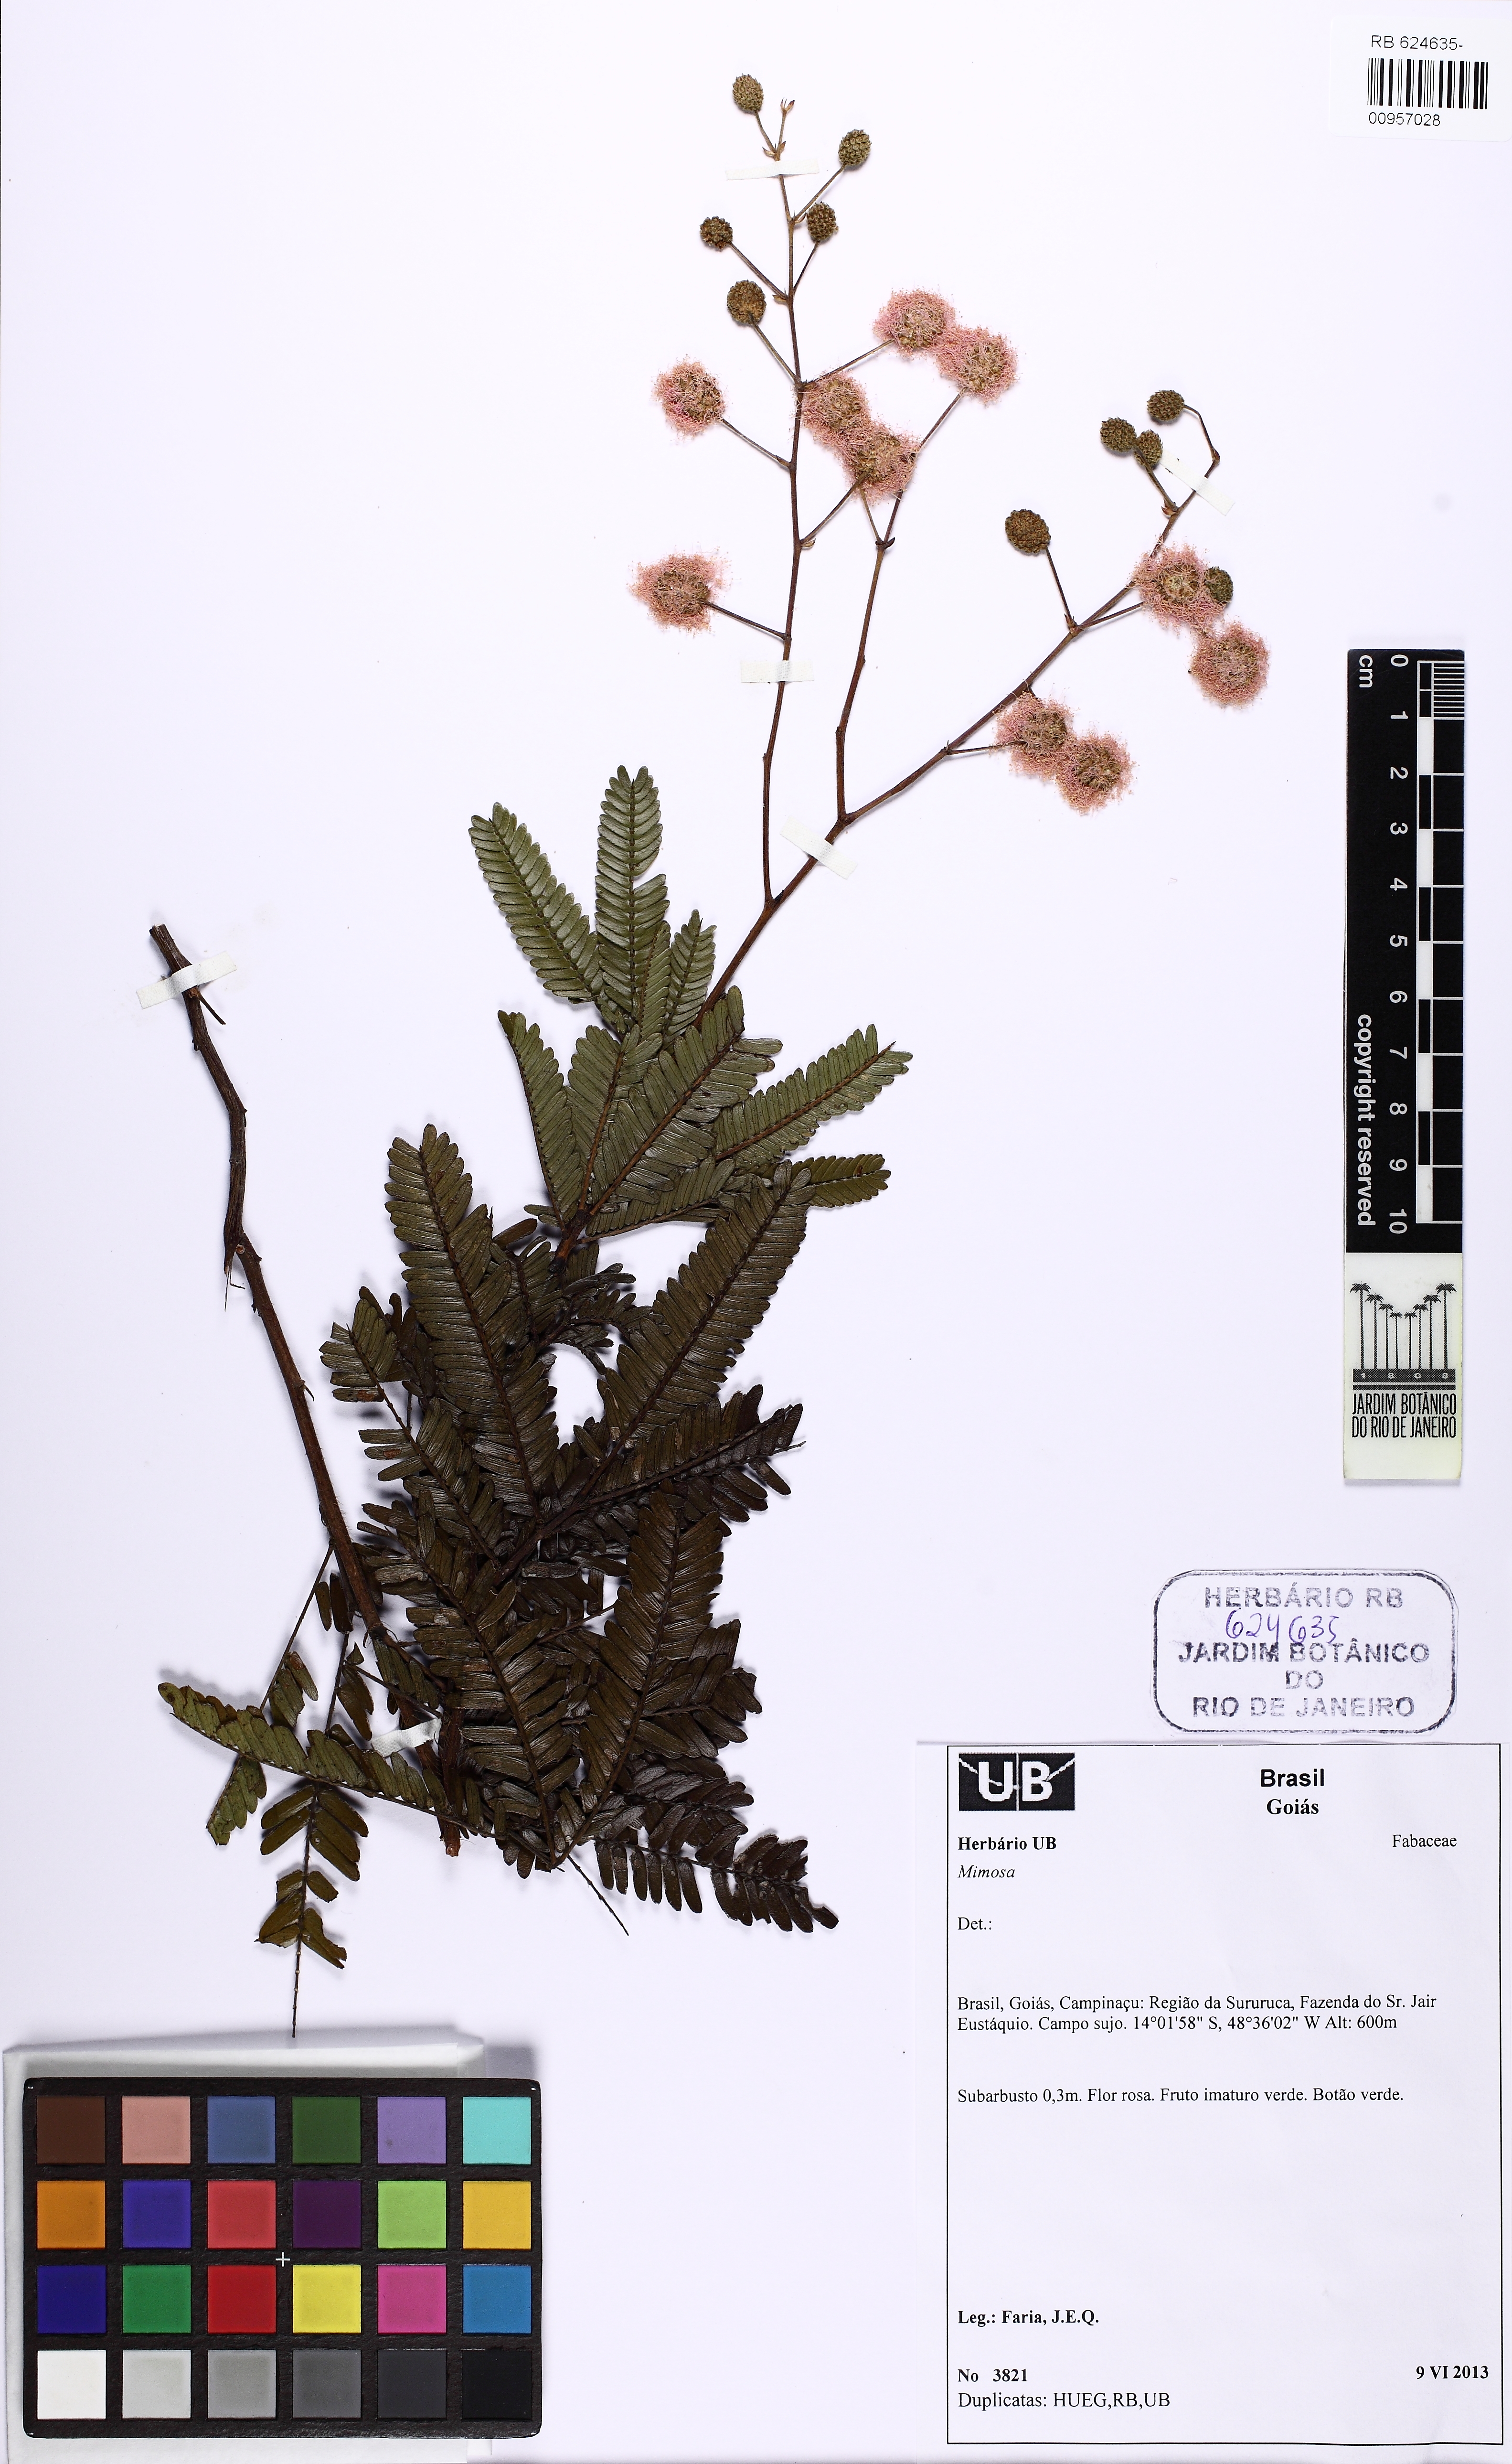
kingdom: Plantae
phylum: Tracheophyta
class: Magnoliopsida
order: Fabales
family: Fabaceae
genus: Mimosa
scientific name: Mimosa nitens
